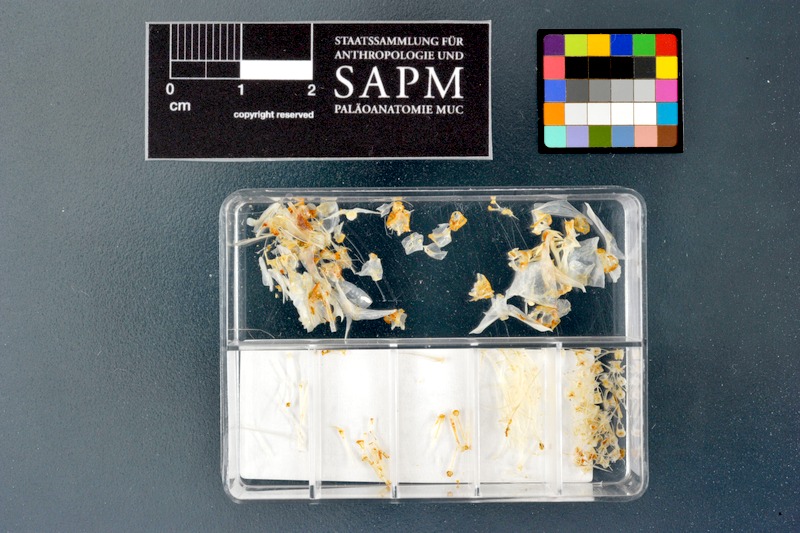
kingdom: Animalia
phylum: Chordata
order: Cypriniformes
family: Cyprinidae
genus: Alburnus
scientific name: Alburnus mossulensis
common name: Mossul bleak
